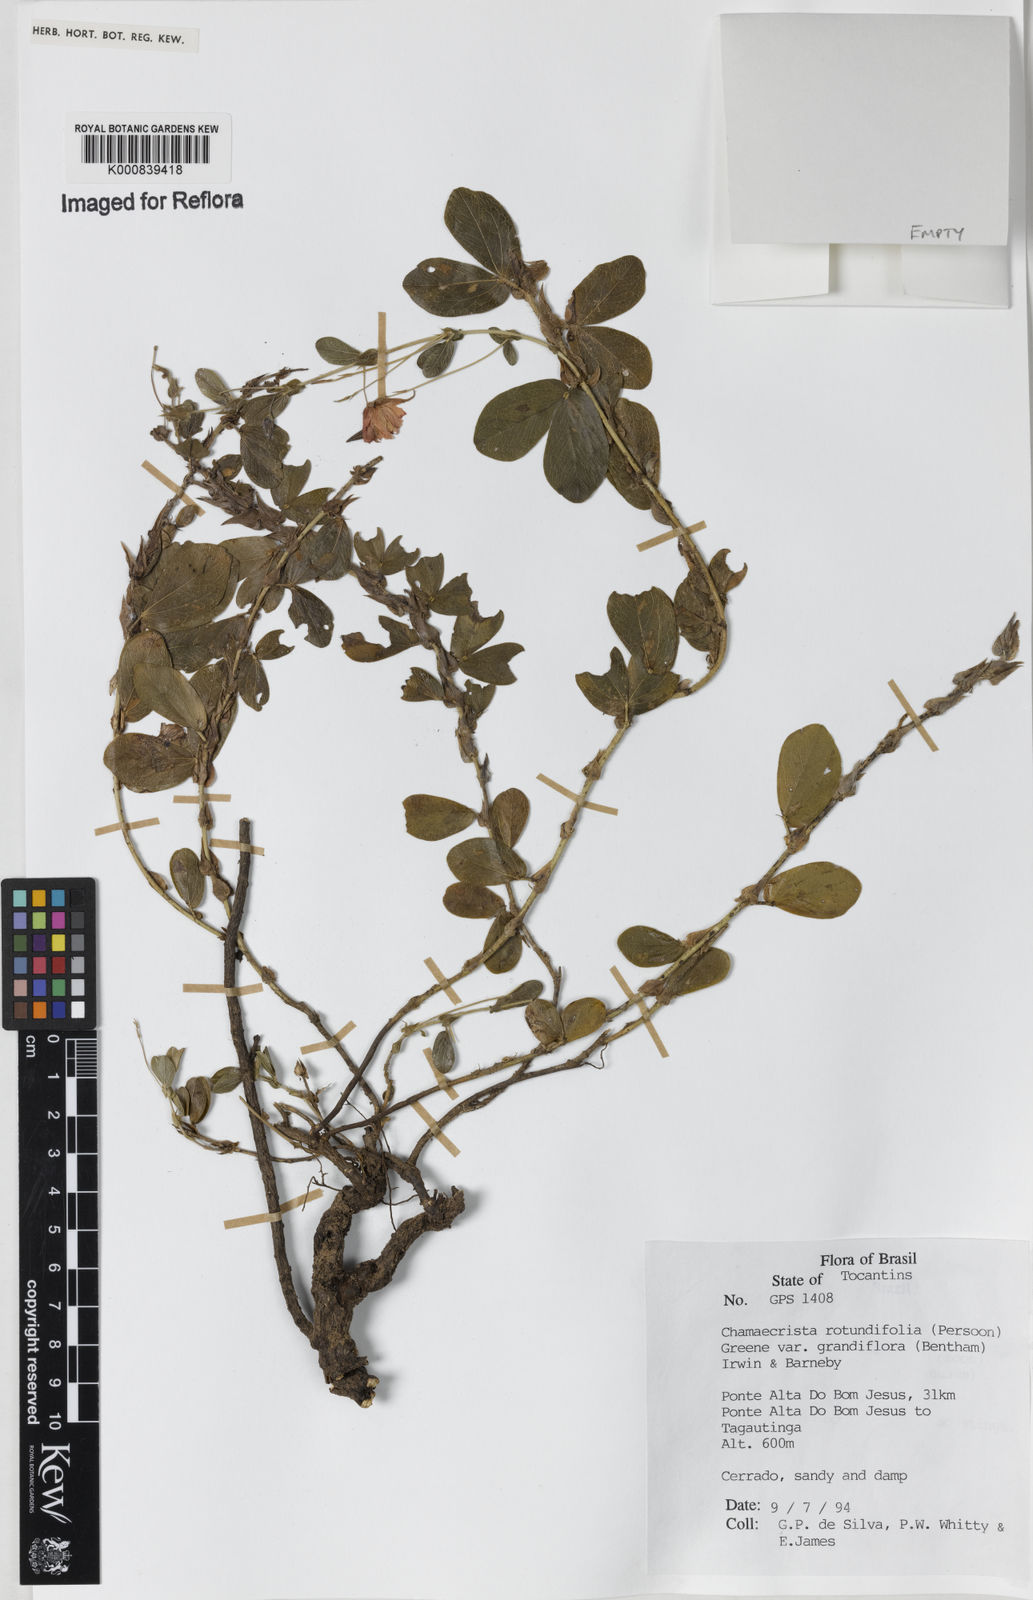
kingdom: Plantae
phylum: Tracheophyta
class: Magnoliopsida
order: Fabales
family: Fabaceae
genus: Chamaecrista
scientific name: Chamaecrista rotundifolia
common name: Round-leaf cassia
